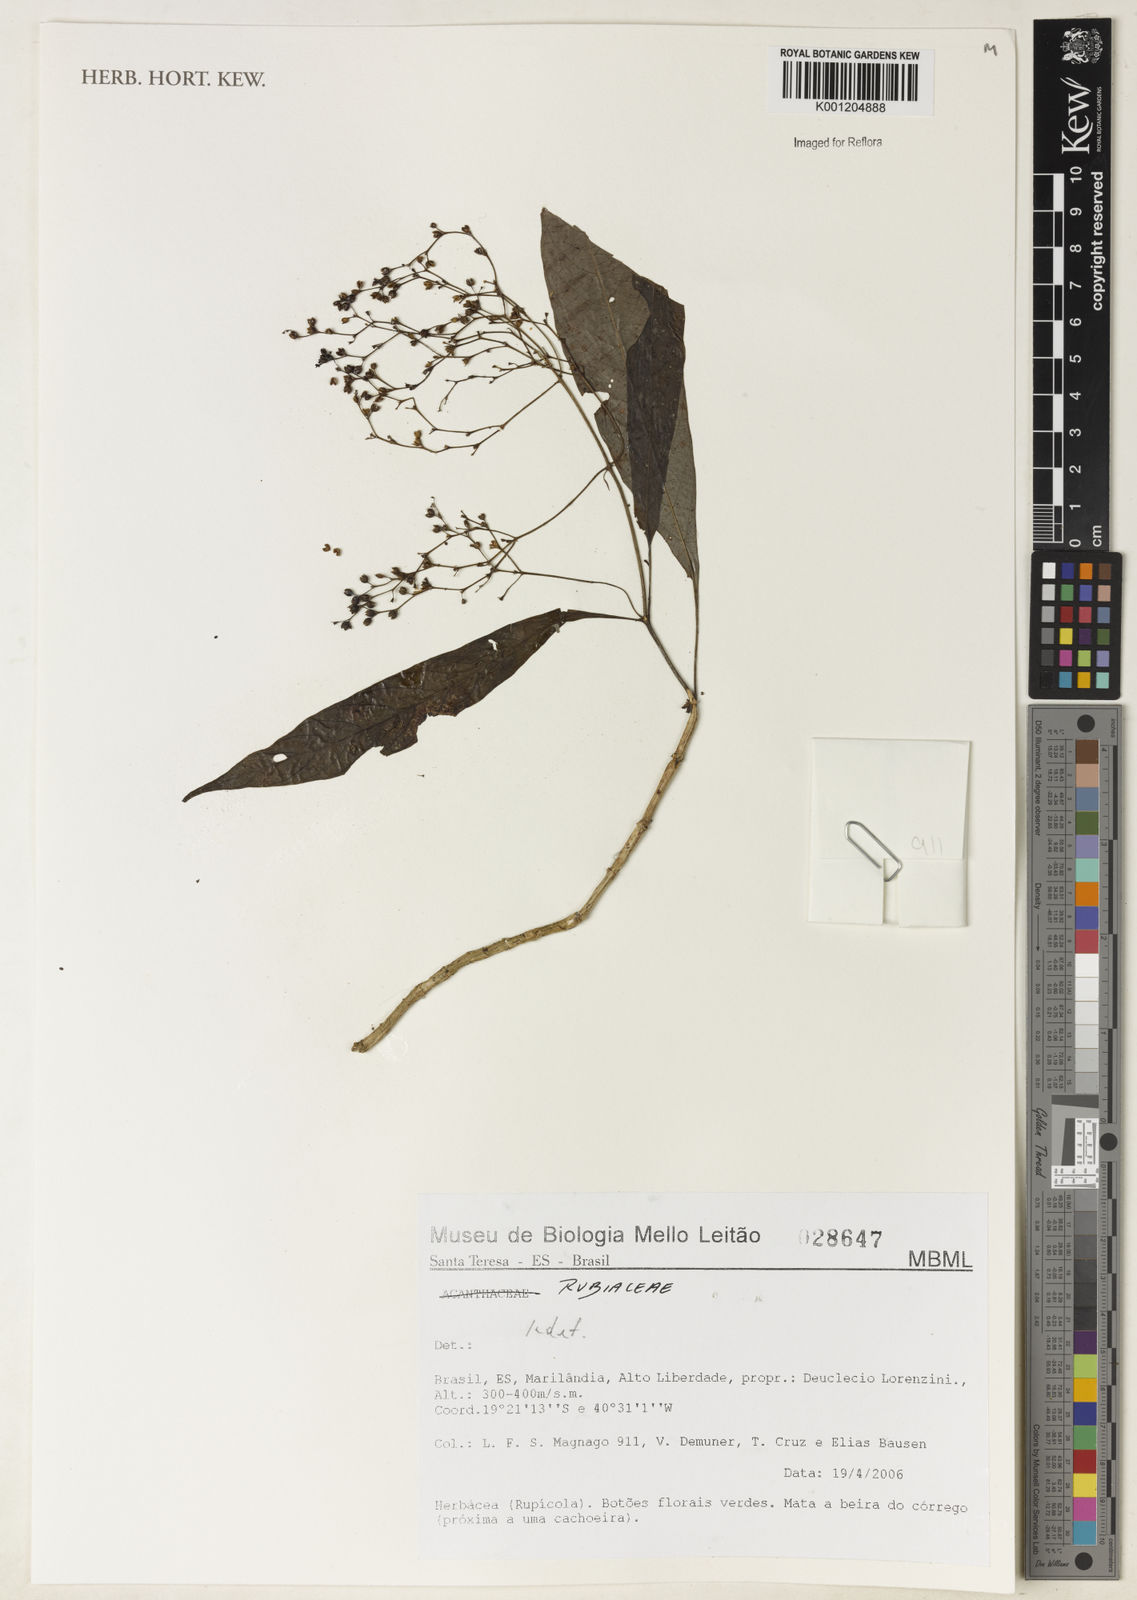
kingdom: Plantae
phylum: Tracheophyta
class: Magnoliopsida
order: Gentianales
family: Rubiaceae
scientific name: Rubiaceae
